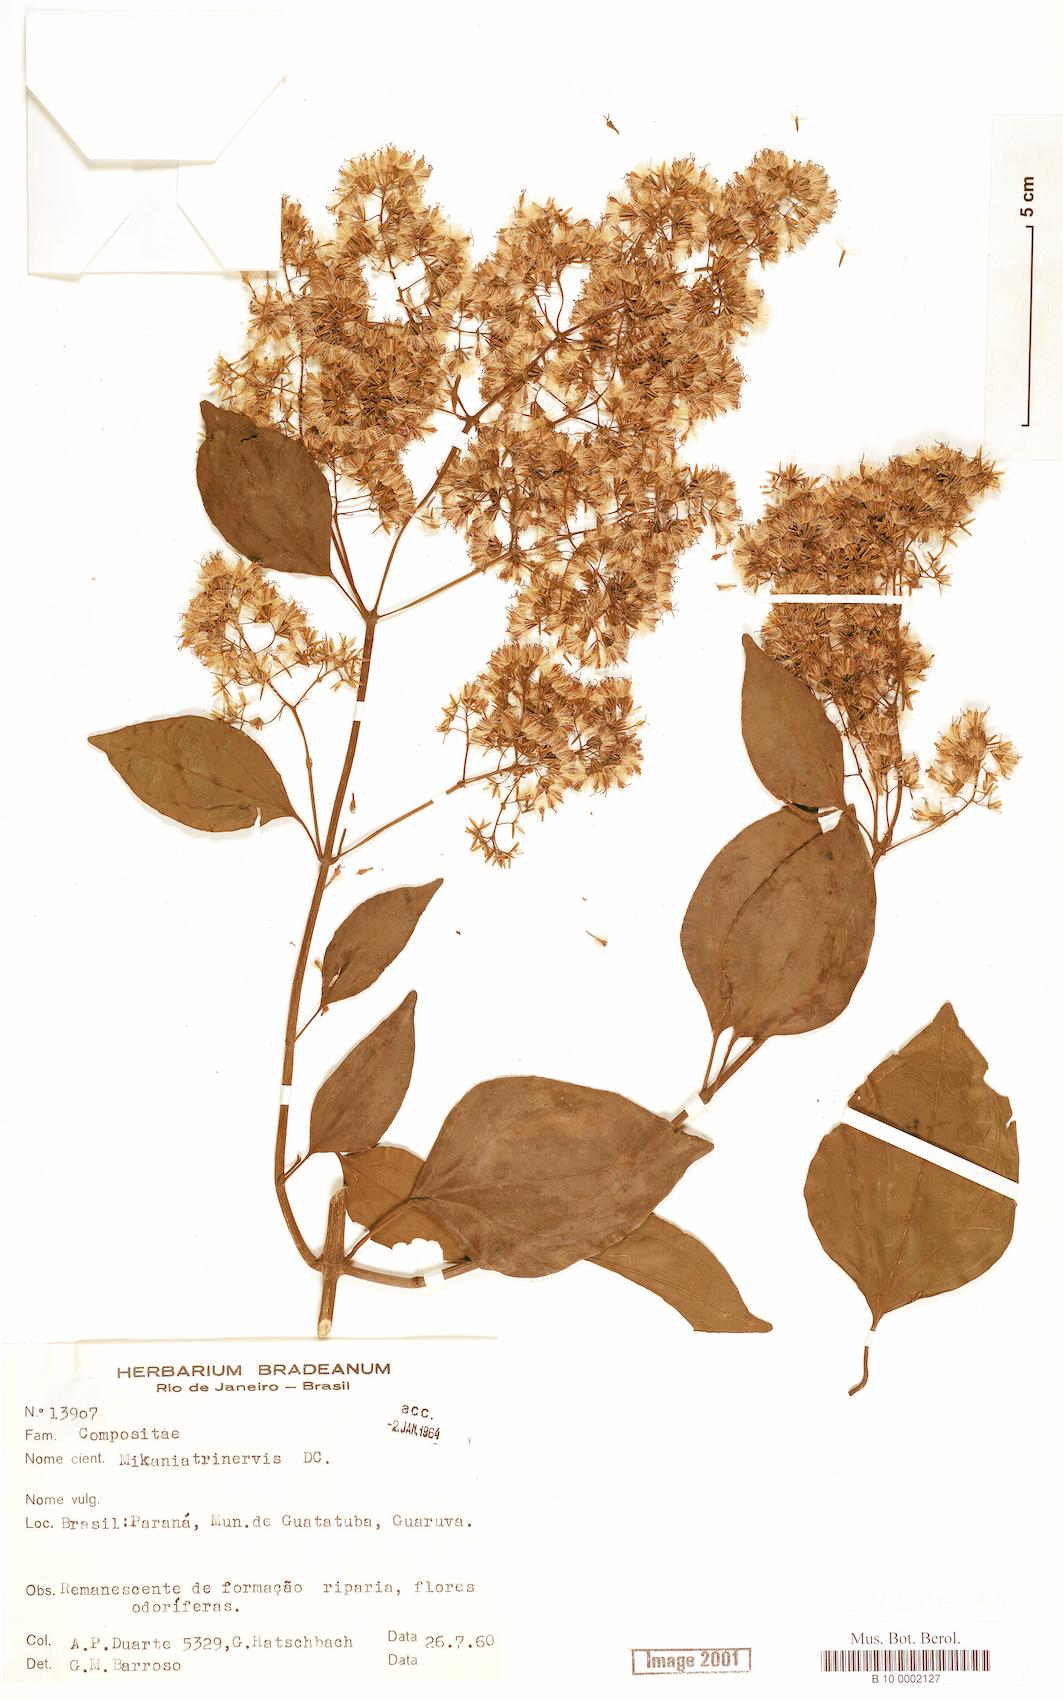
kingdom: Plantae
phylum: Tracheophyta
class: Magnoliopsida
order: Asterales
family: Asteraceae
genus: Mikania
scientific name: Mikania trinervis
